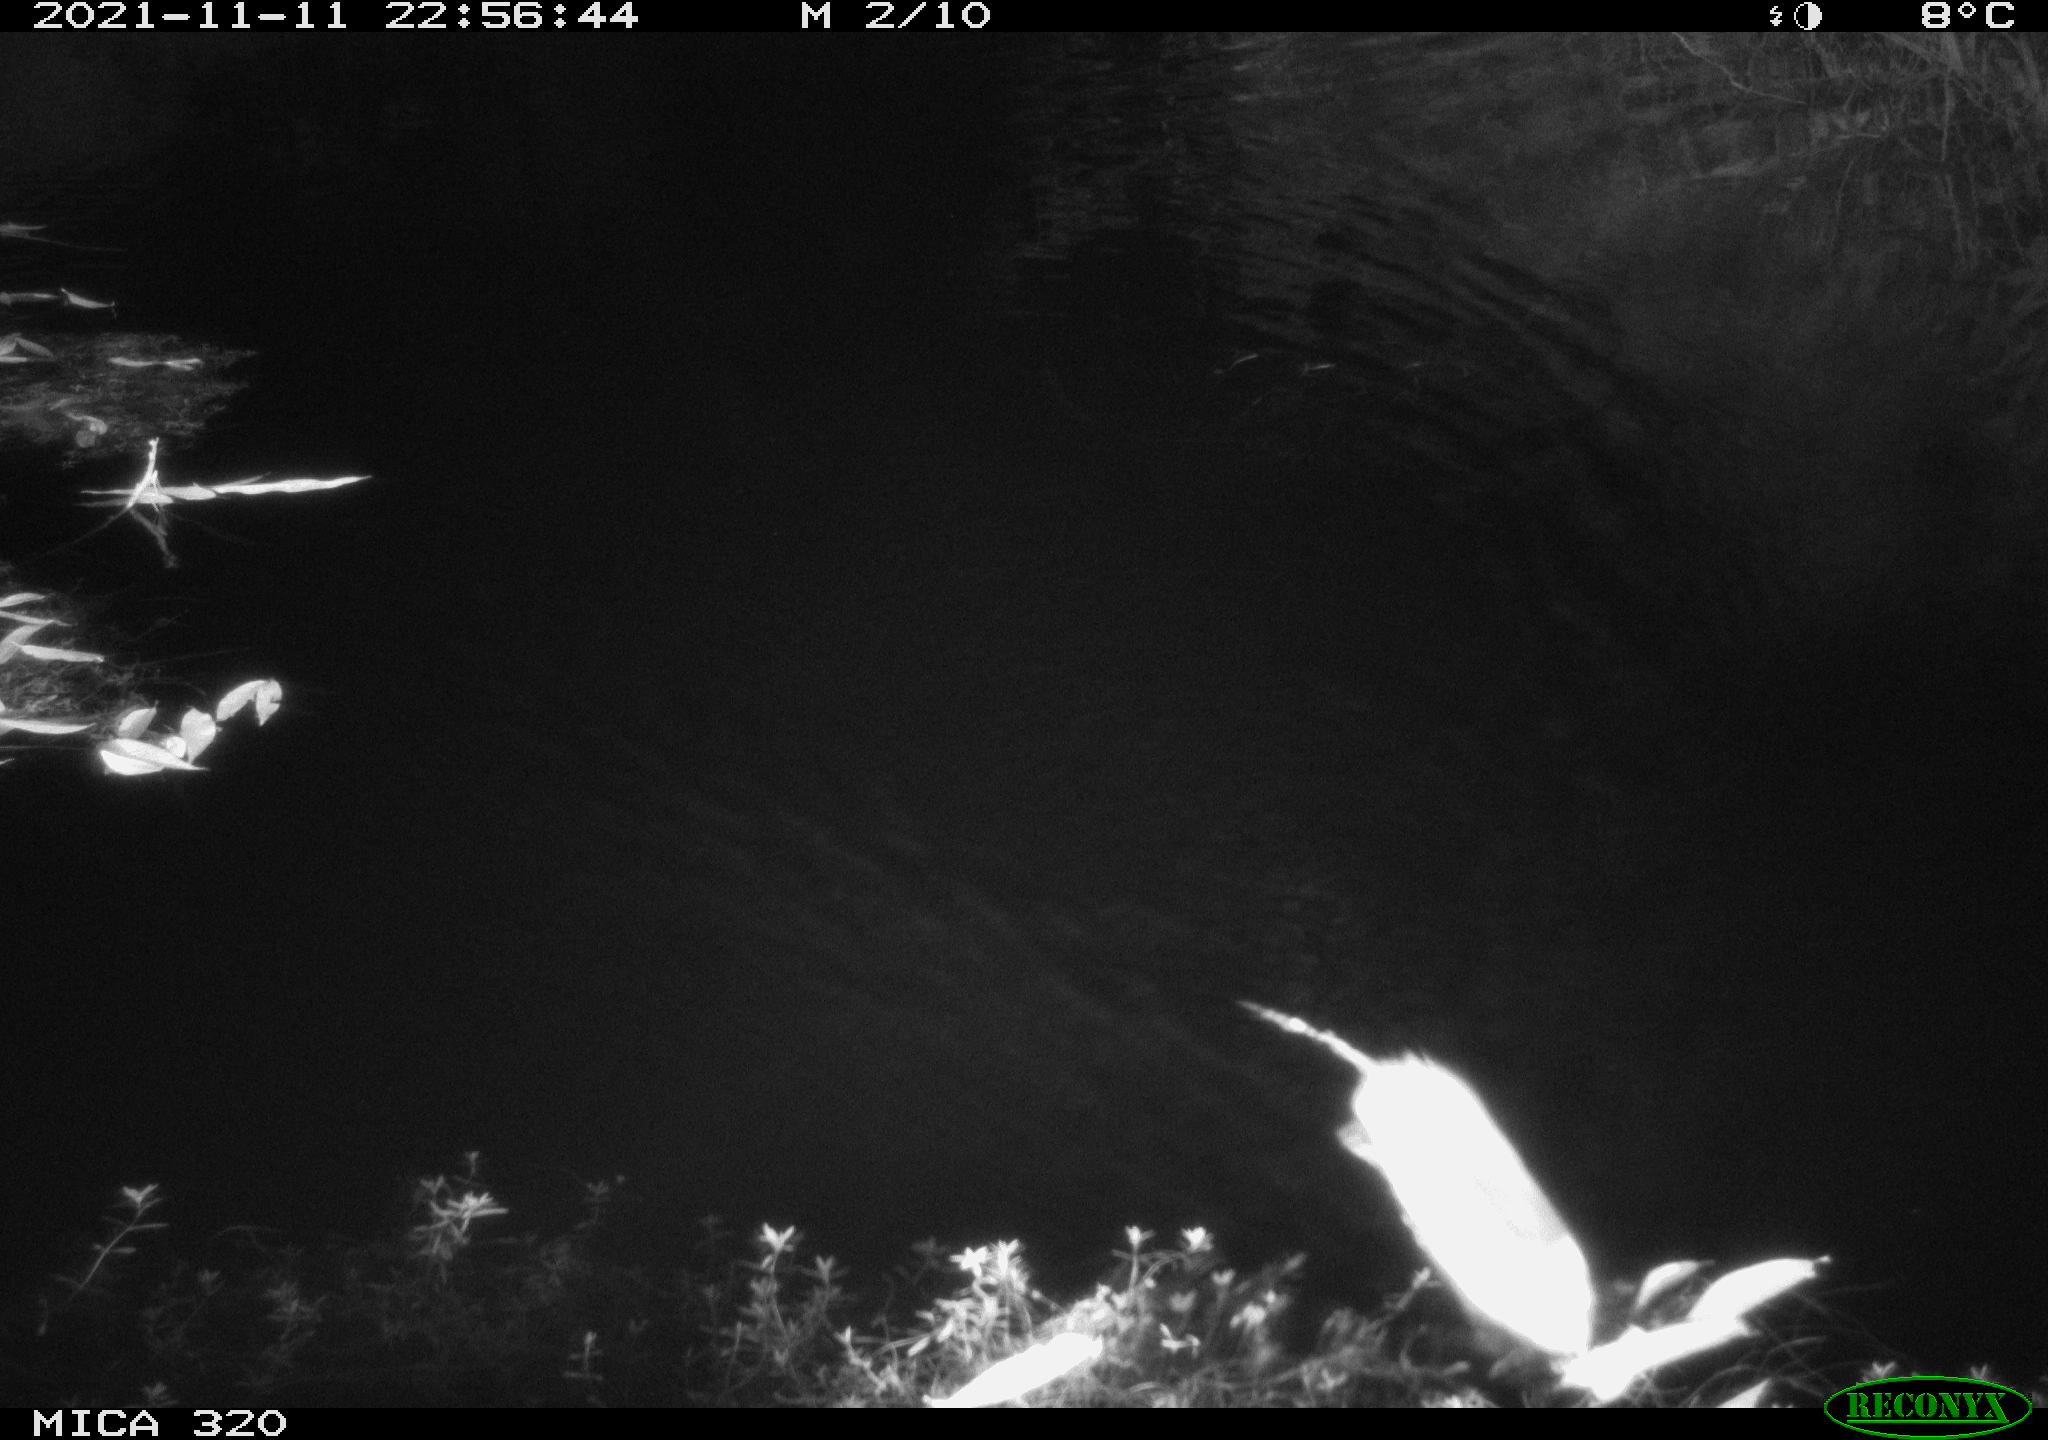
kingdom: Animalia
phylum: Chordata
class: Mammalia
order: Rodentia
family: Muridae
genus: Rattus
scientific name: Rattus norvegicus
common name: Brown rat
